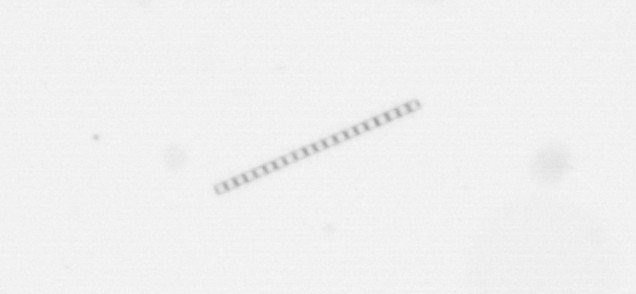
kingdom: Chromista
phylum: Ochrophyta
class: Bacillariophyceae
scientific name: Bacillariophyceae
